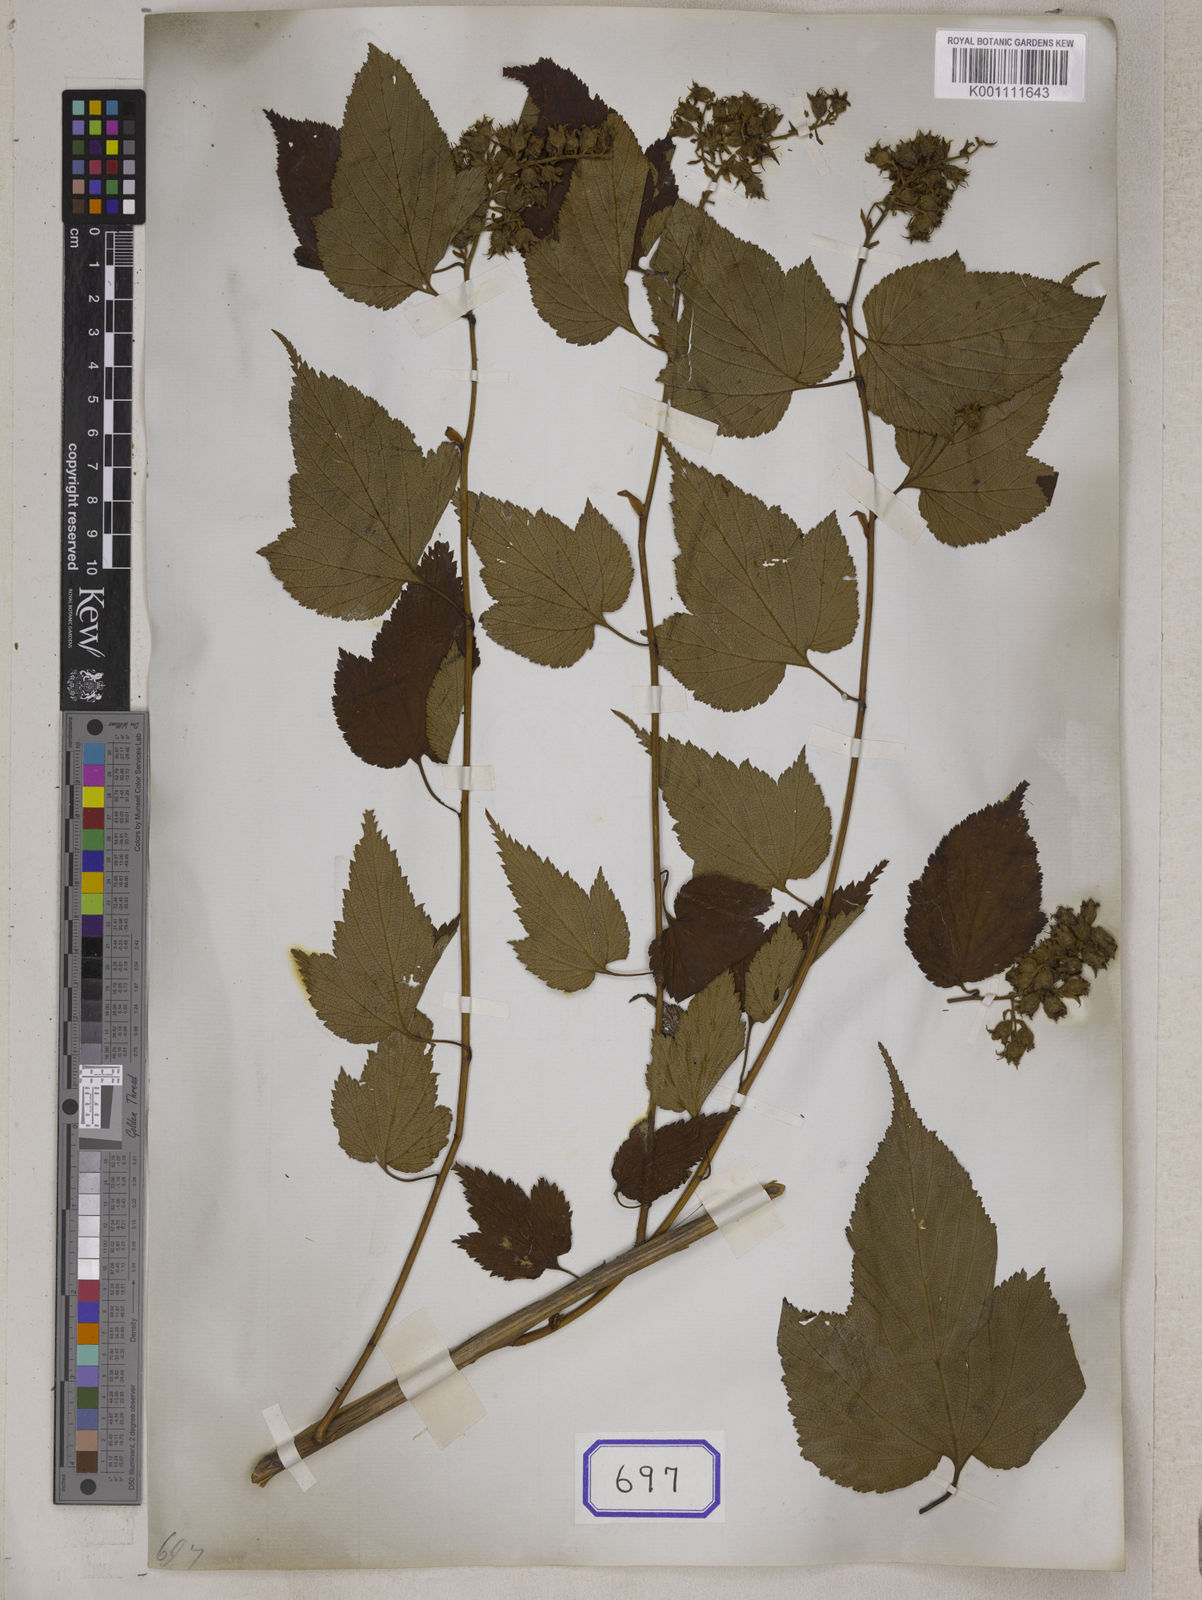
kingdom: Plantae
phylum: Tracheophyta
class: Magnoliopsida
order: Rosales
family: Rosaceae
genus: Neillia
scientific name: Neillia rubiflora
